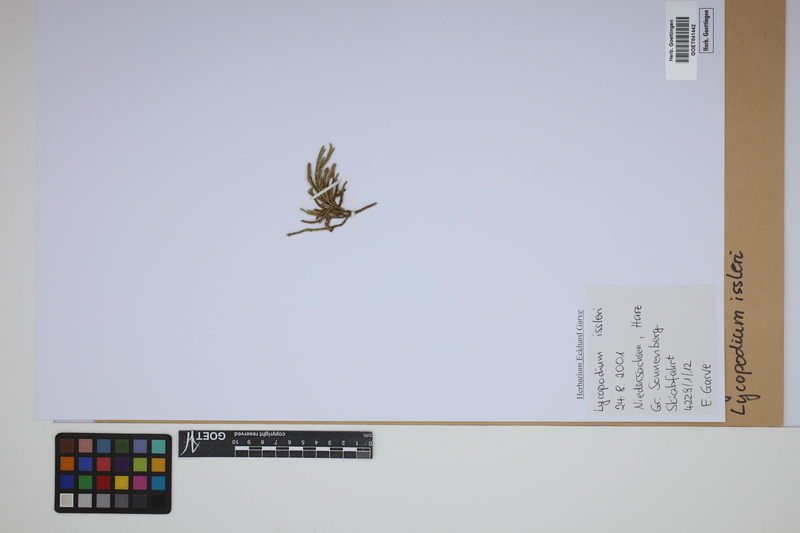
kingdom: Plantae
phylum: Tracheophyta
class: Lycopodiopsida
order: Lycopodiales
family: Lycopodiaceae
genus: Diphasiastrum
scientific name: Diphasiastrum issleri
